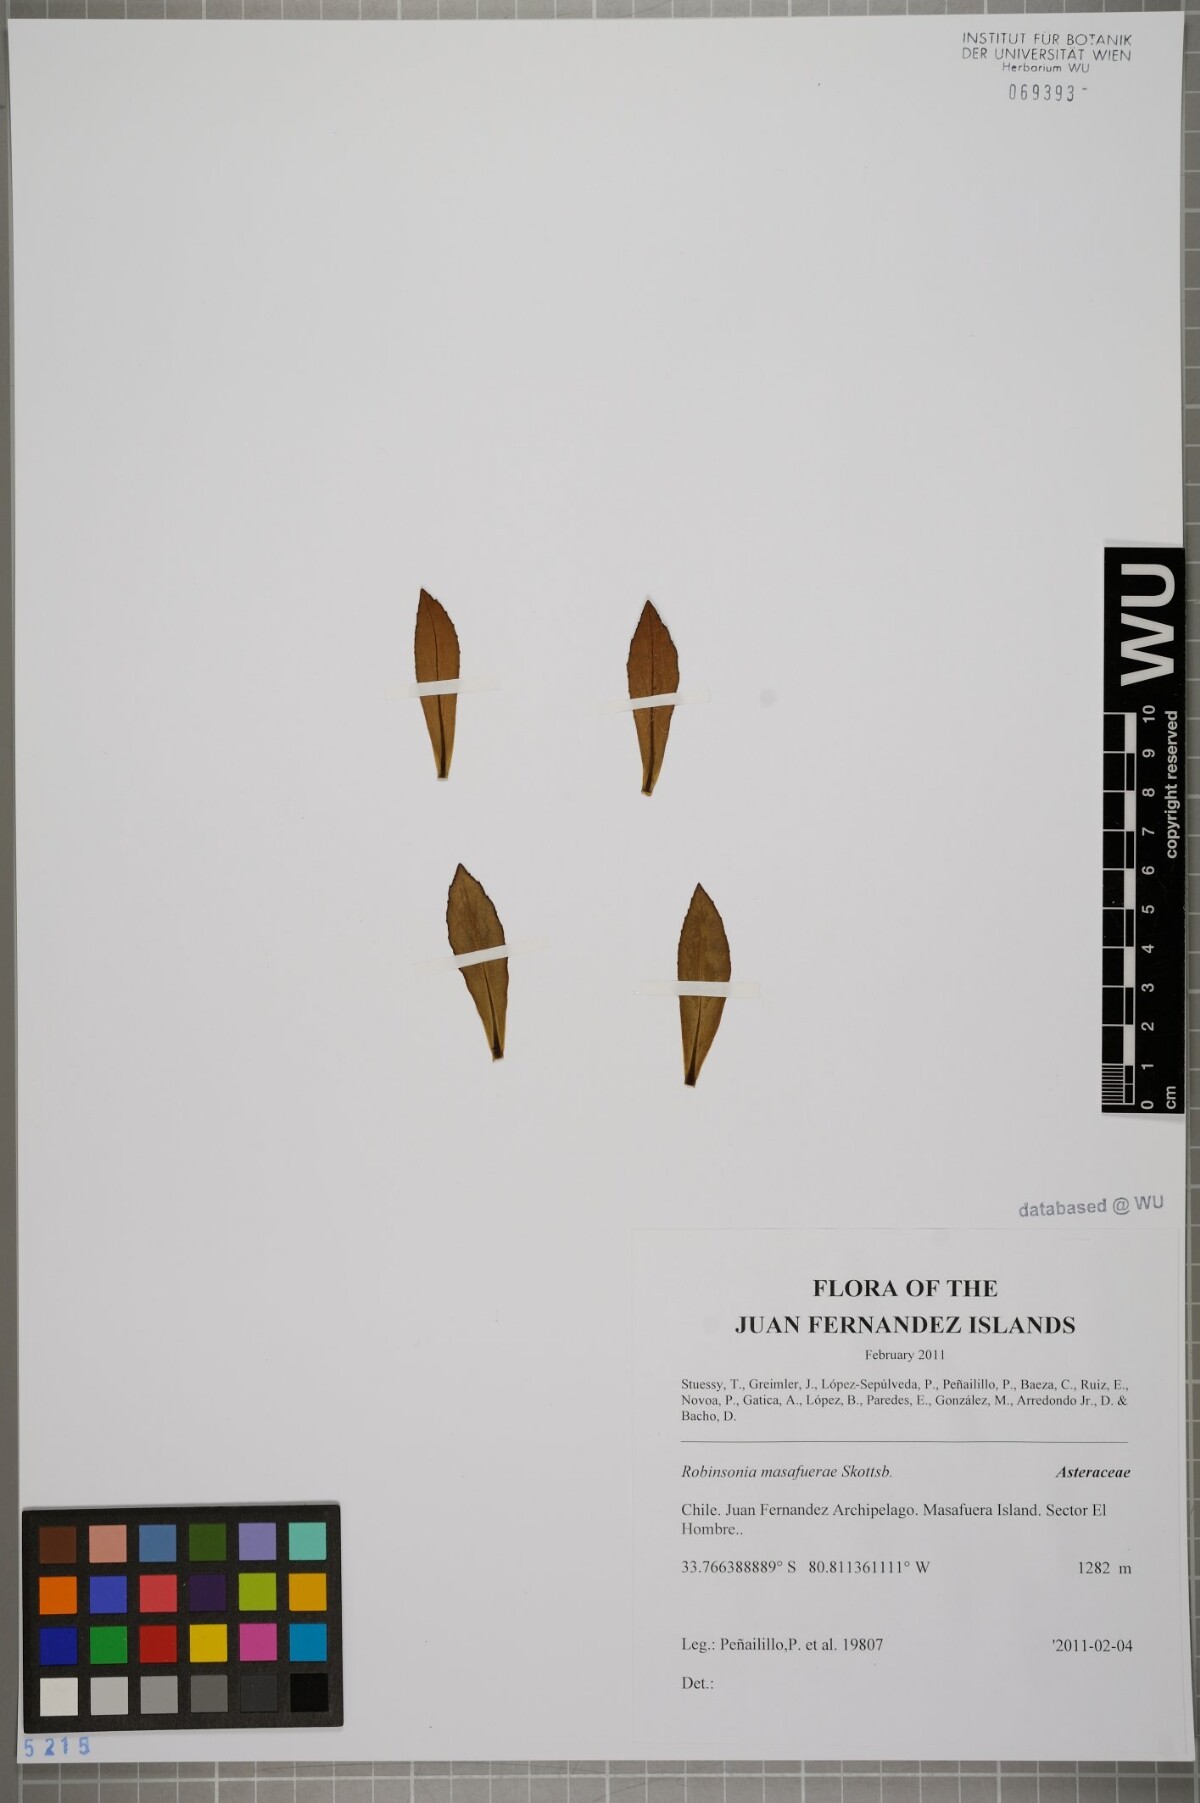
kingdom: Plantae
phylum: Tracheophyta
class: Magnoliopsida
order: Asterales
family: Asteraceae
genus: Robinsonia
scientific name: Robinsonia masafuerae
